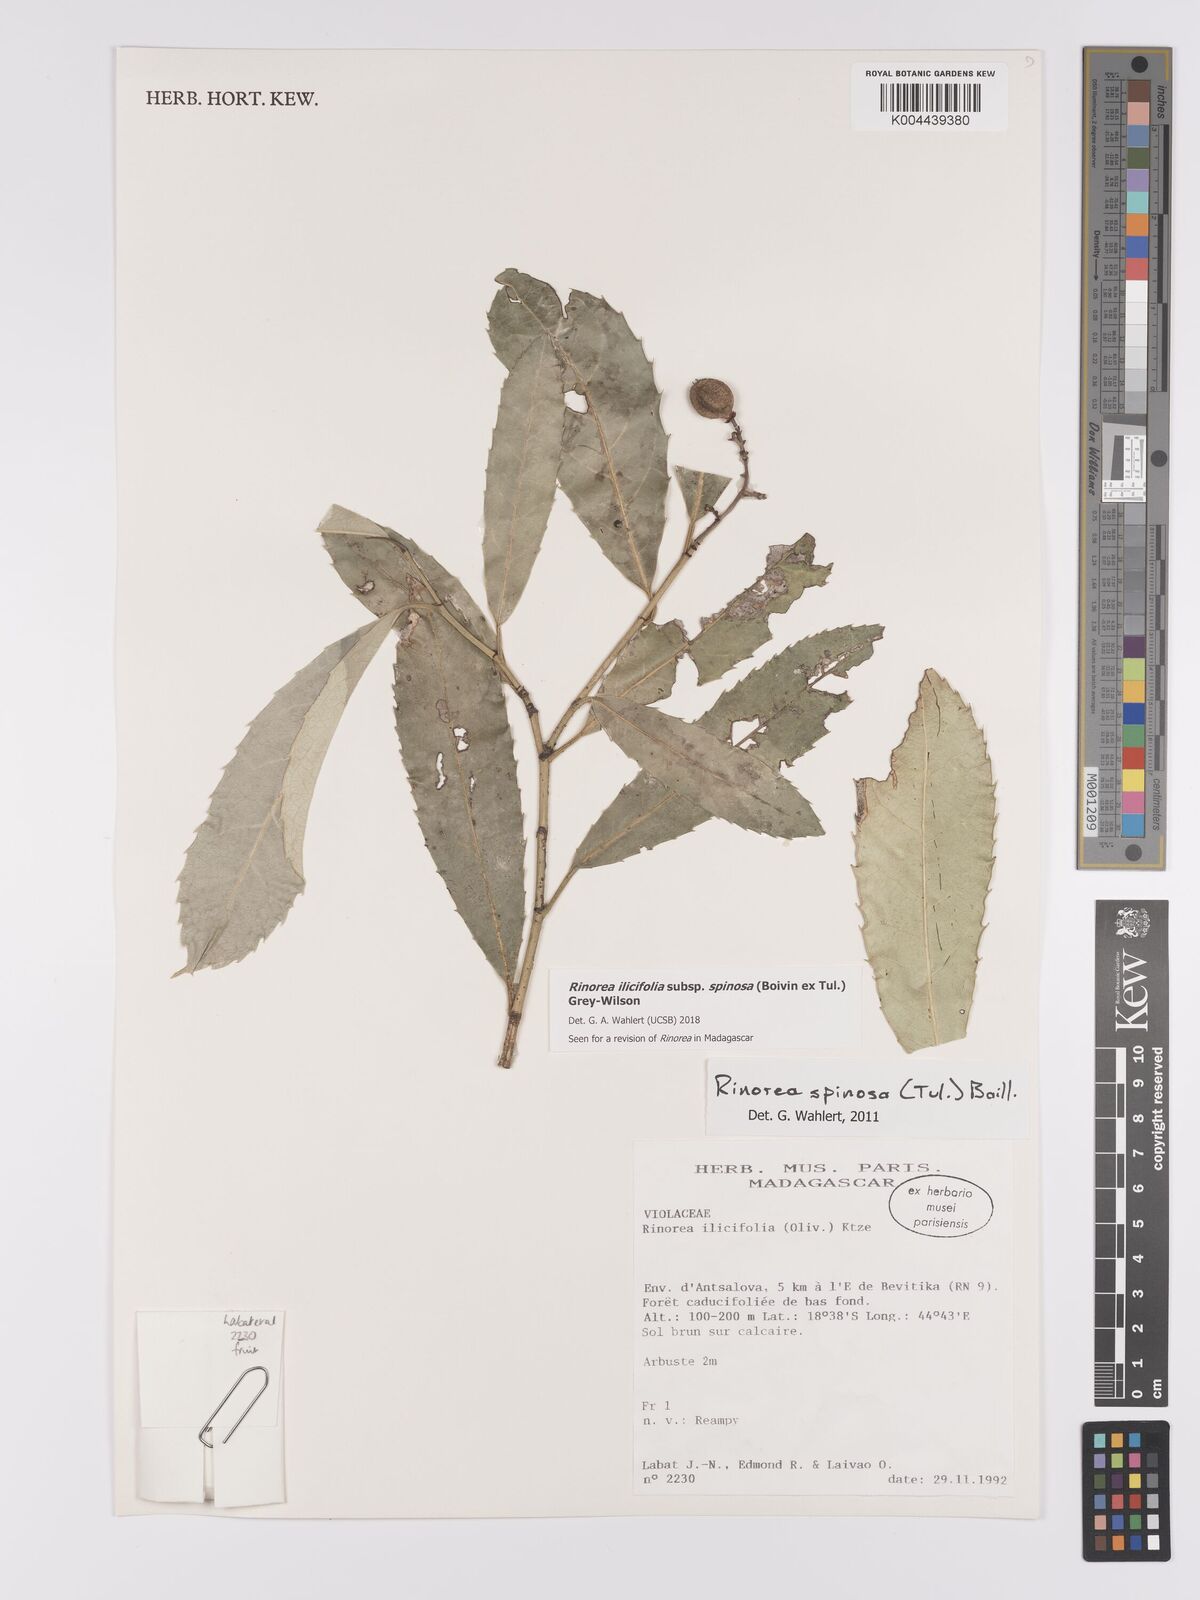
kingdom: Plantae
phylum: Tracheophyta
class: Magnoliopsida
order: Malpighiales
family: Violaceae
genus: Rinorea
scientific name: Rinorea spinosa
